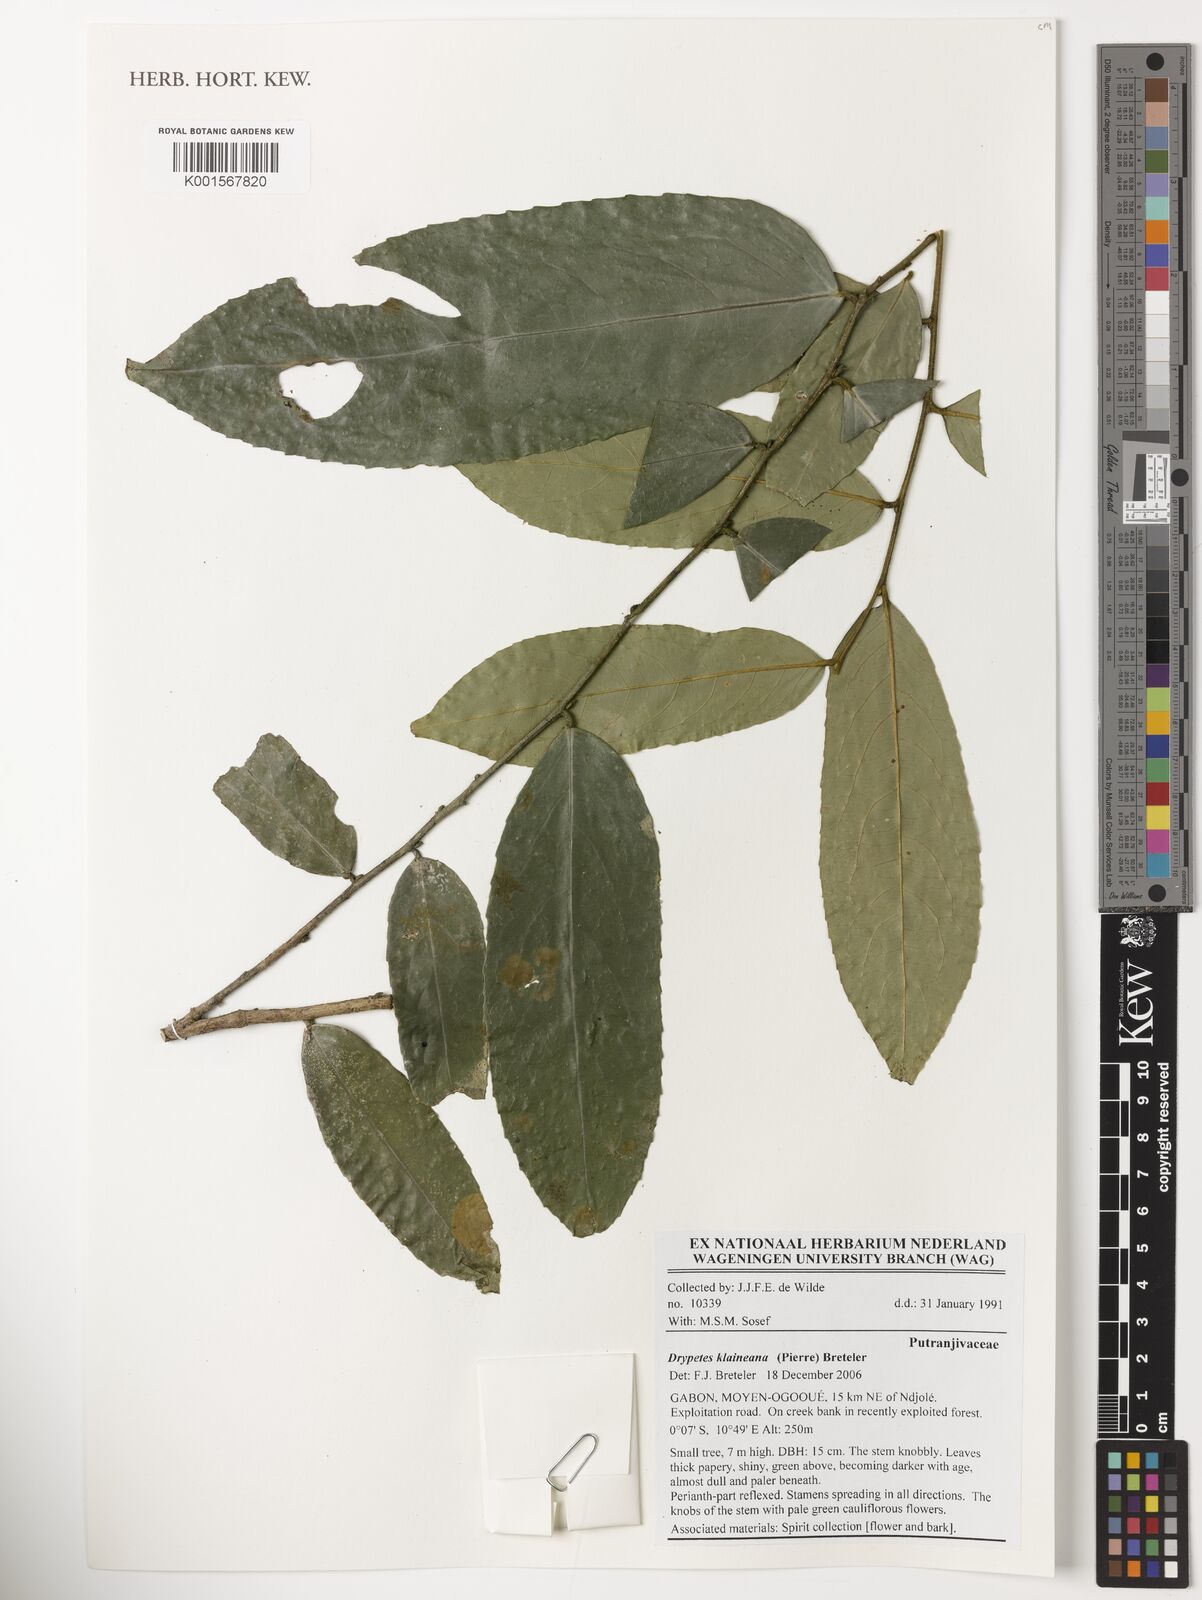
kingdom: Plantae
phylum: Tracheophyta
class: Magnoliopsida
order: Malpighiales
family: Putranjivaceae
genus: Drypetes
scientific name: Drypetes pierreana
